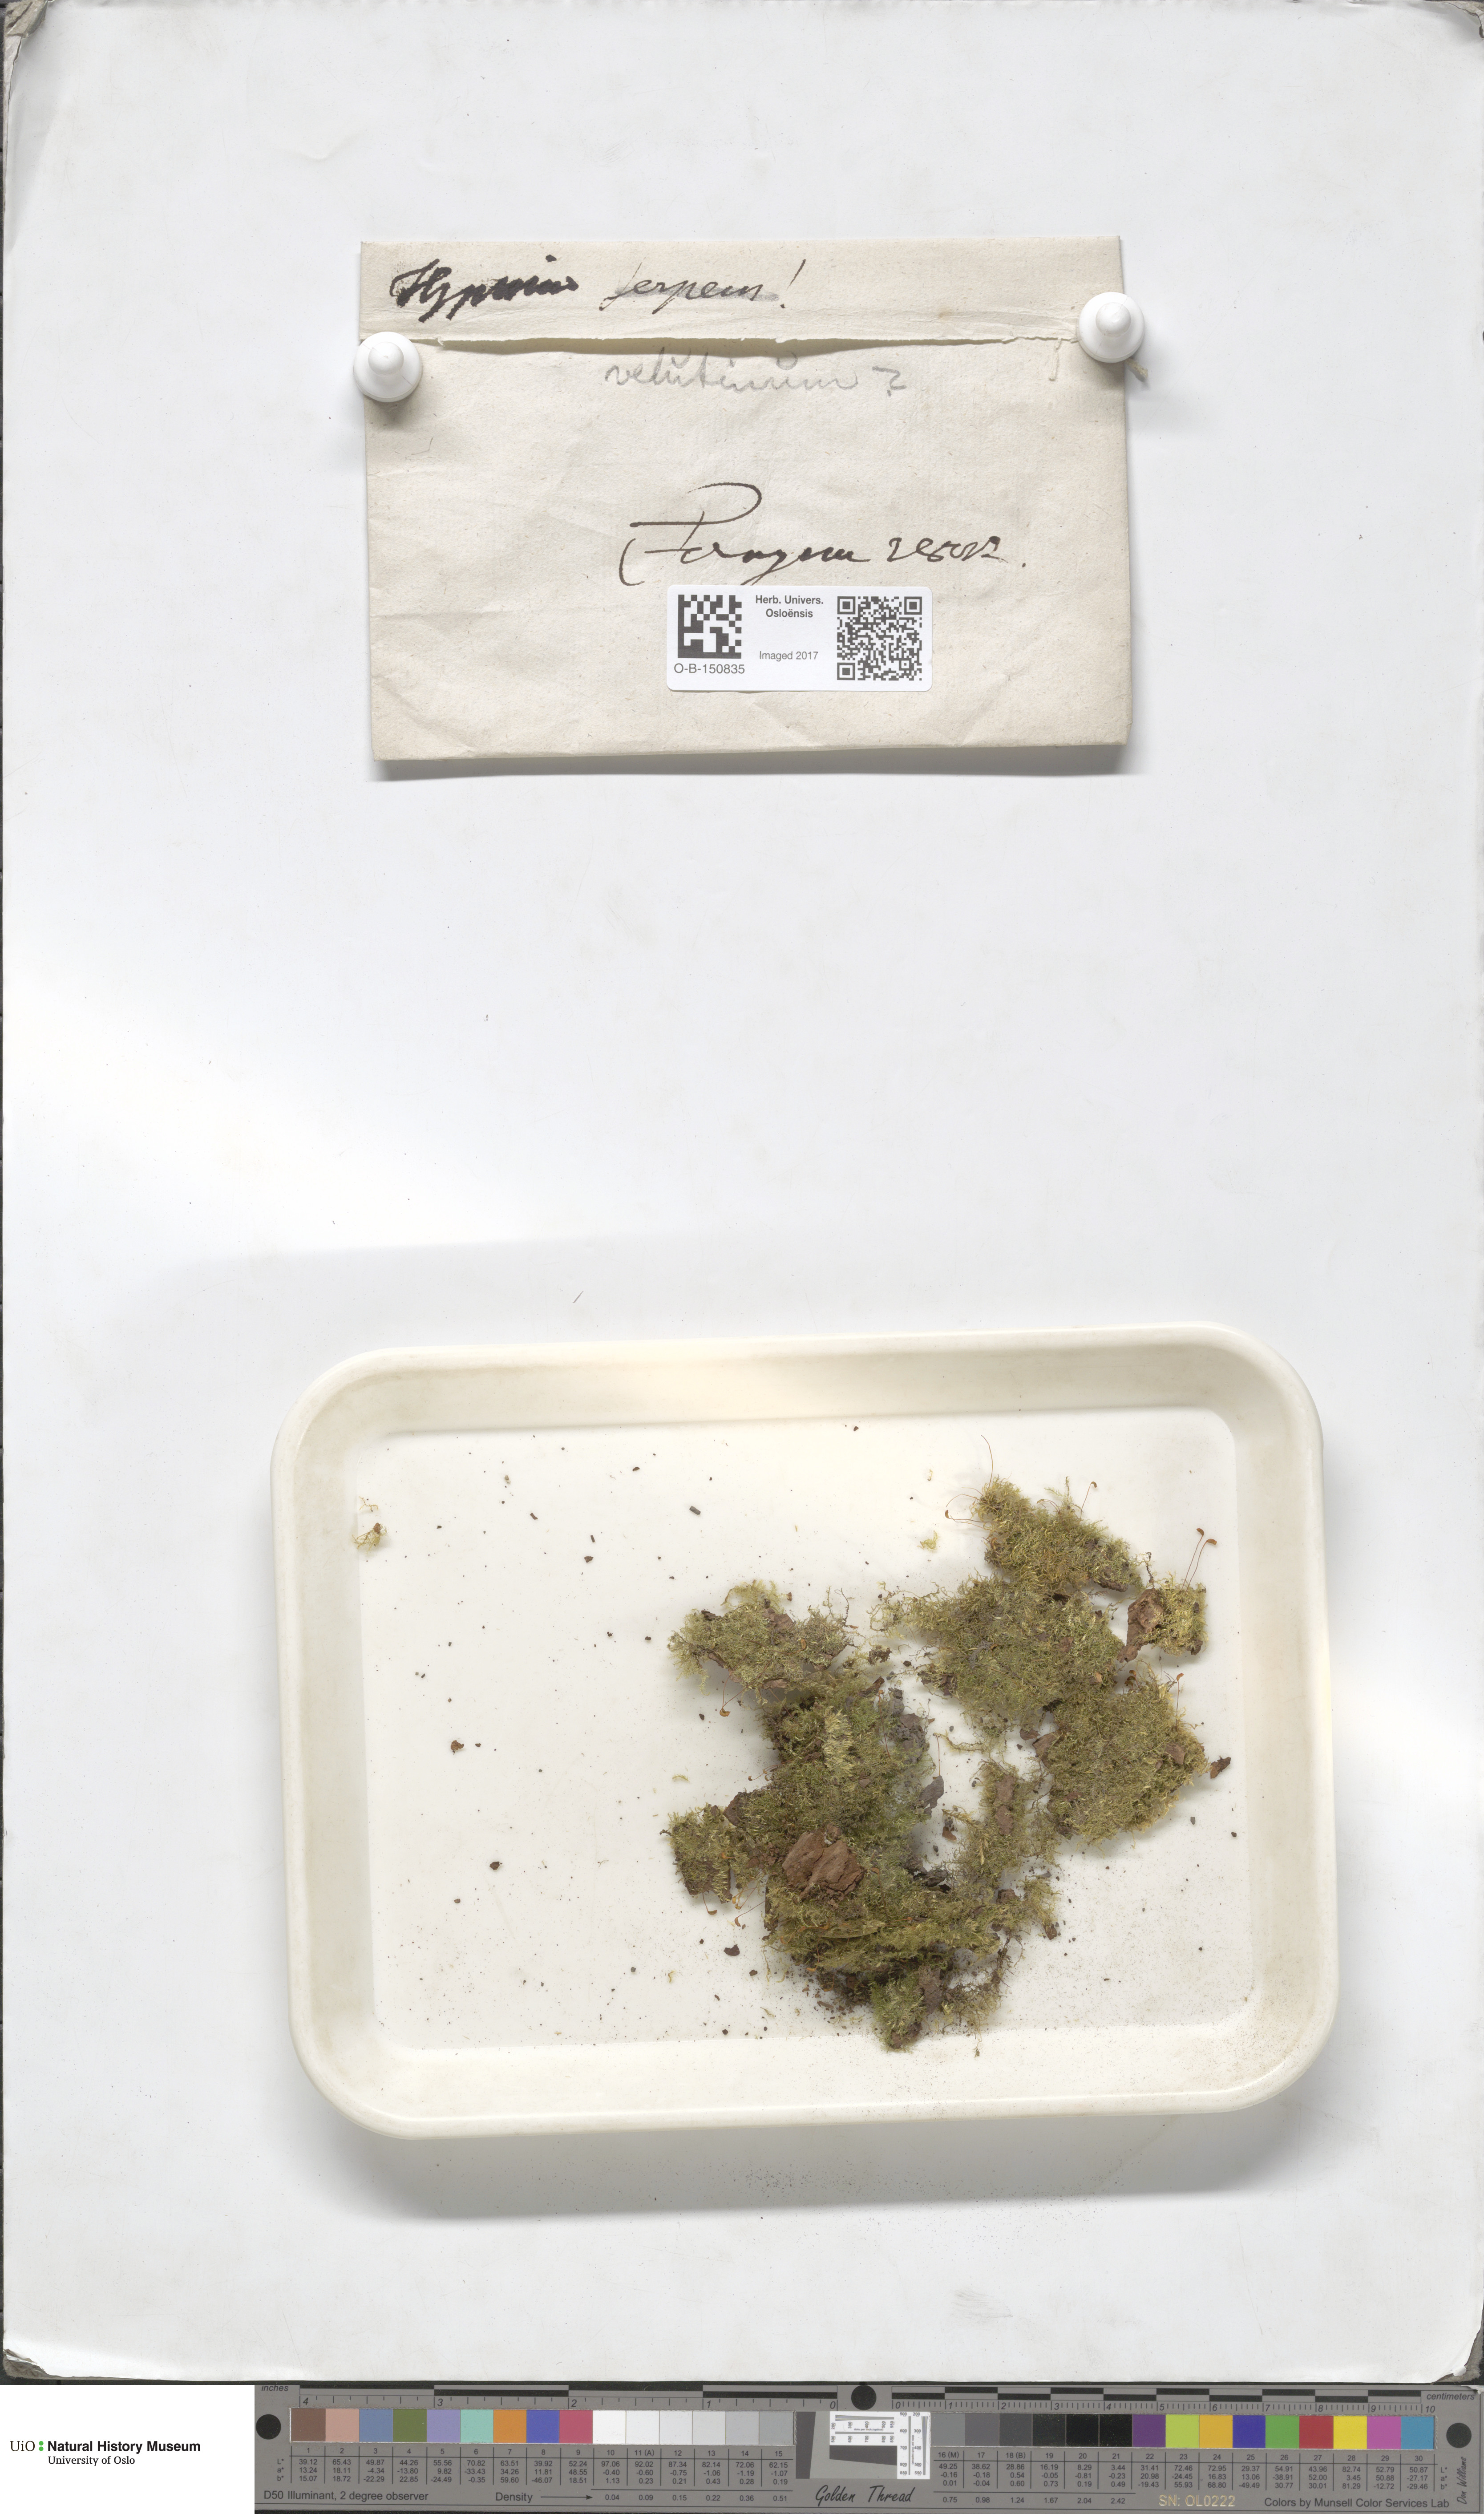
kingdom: Plantae
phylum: Bryophyta
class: Bryopsida
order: Hypnales
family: Brachytheciaceae
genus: Brachytheciastrum
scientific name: Brachytheciastrum velutinum
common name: Velvet feather-moss
